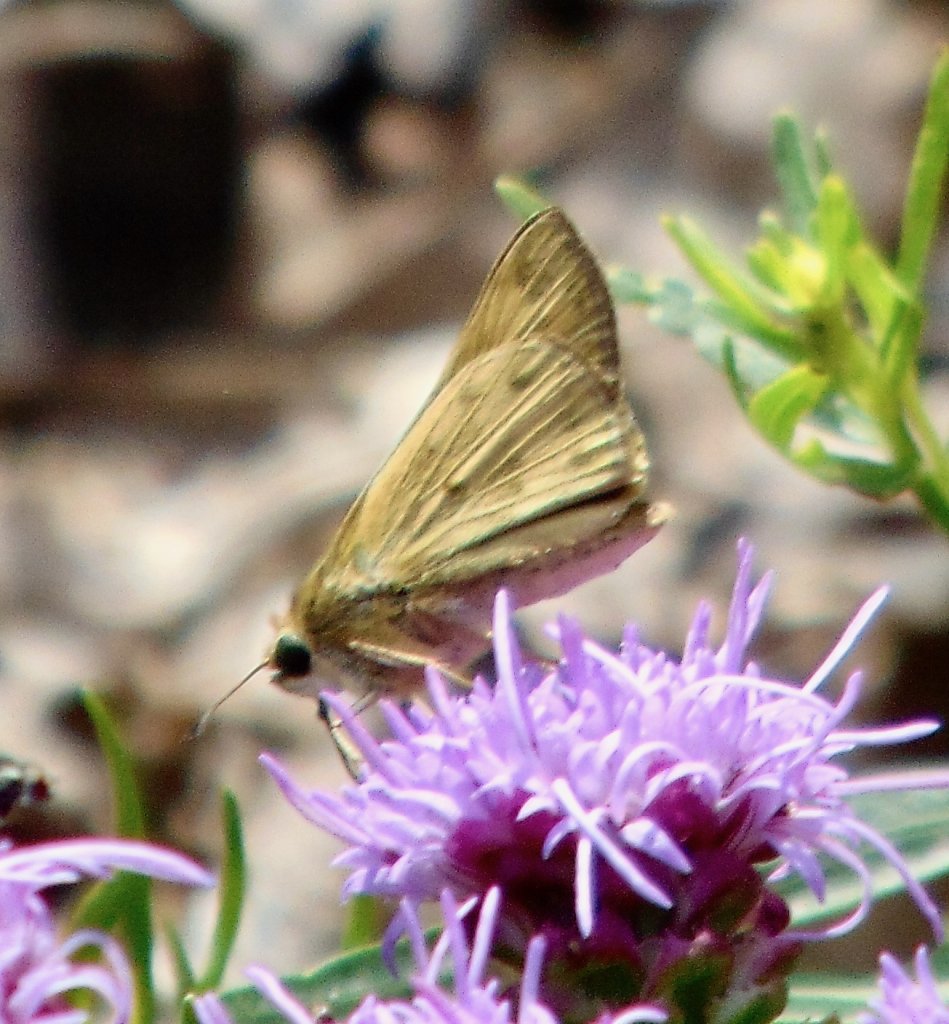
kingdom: Animalia
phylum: Arthropoda
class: Insecta
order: Lepidoptera
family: Hesperiidae
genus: Hylephila
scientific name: Hylephila phyleus
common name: Fiery Skipper
